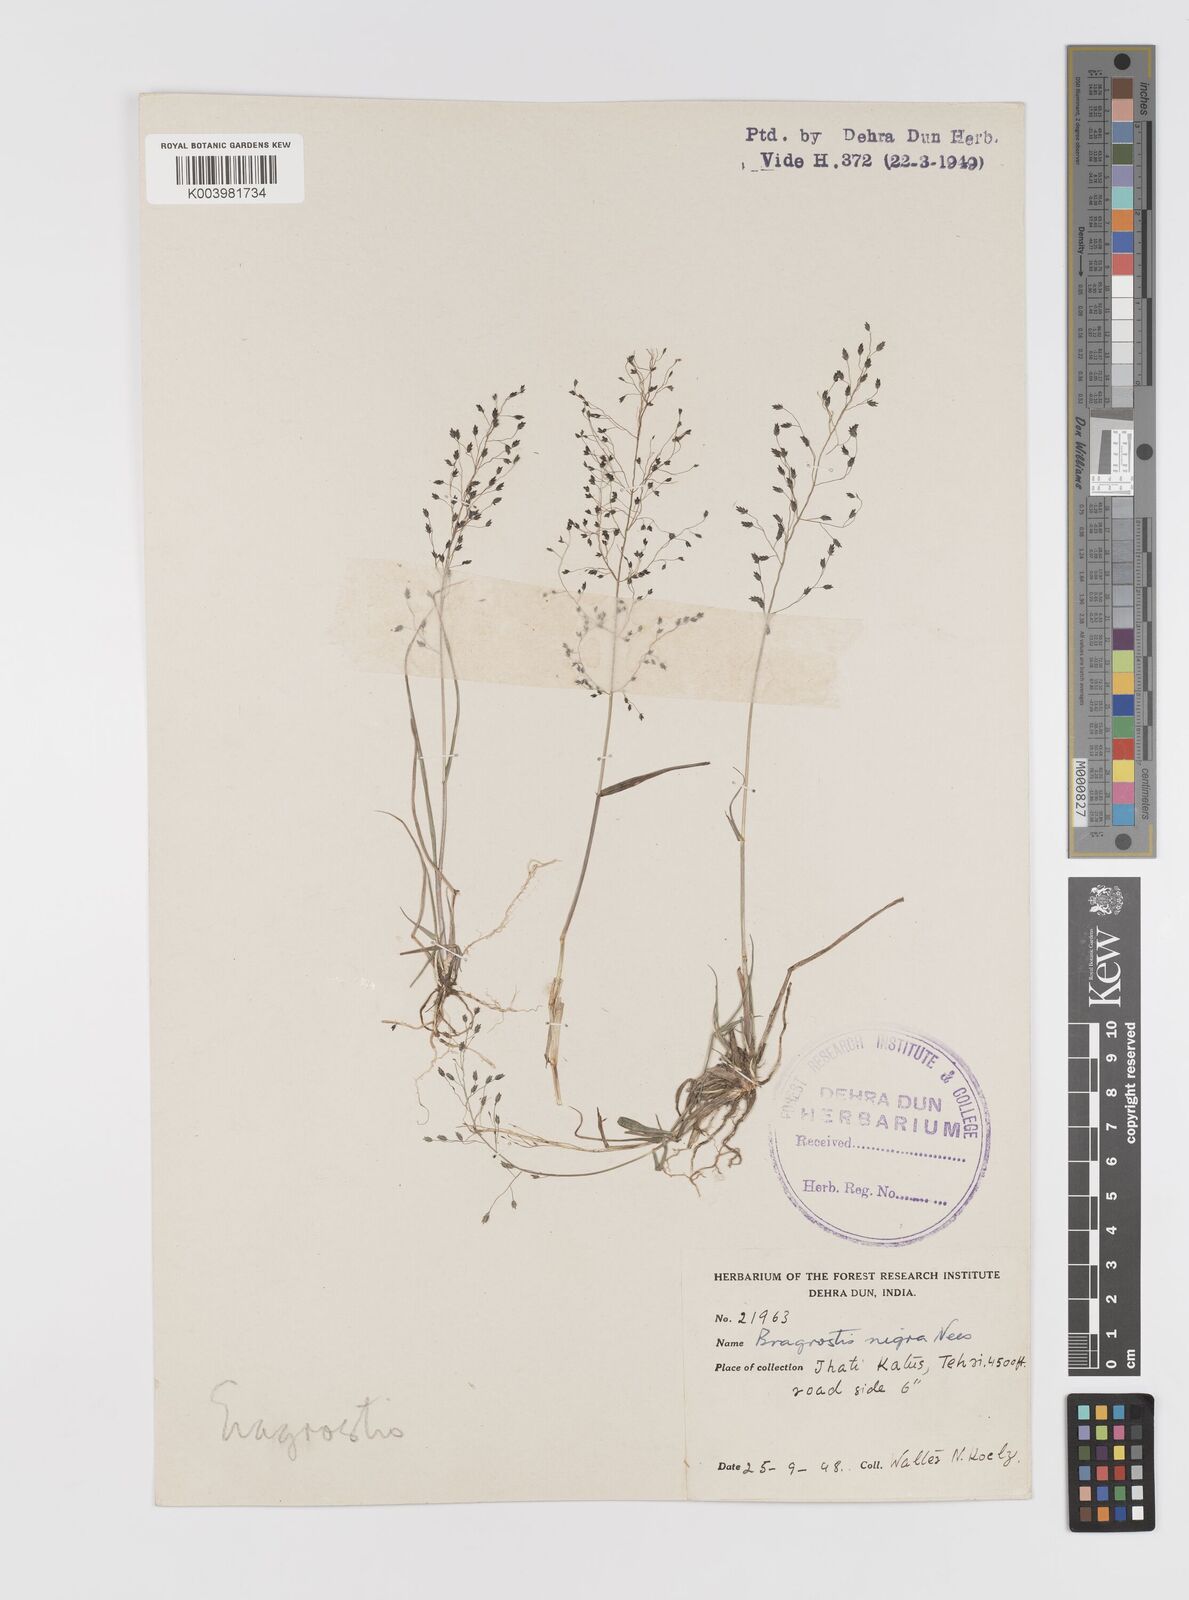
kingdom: Plantae
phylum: Tracheophyta
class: Liliopsida
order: Poales
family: Poaceae
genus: Eragrostis
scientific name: Eragrostis nigra
